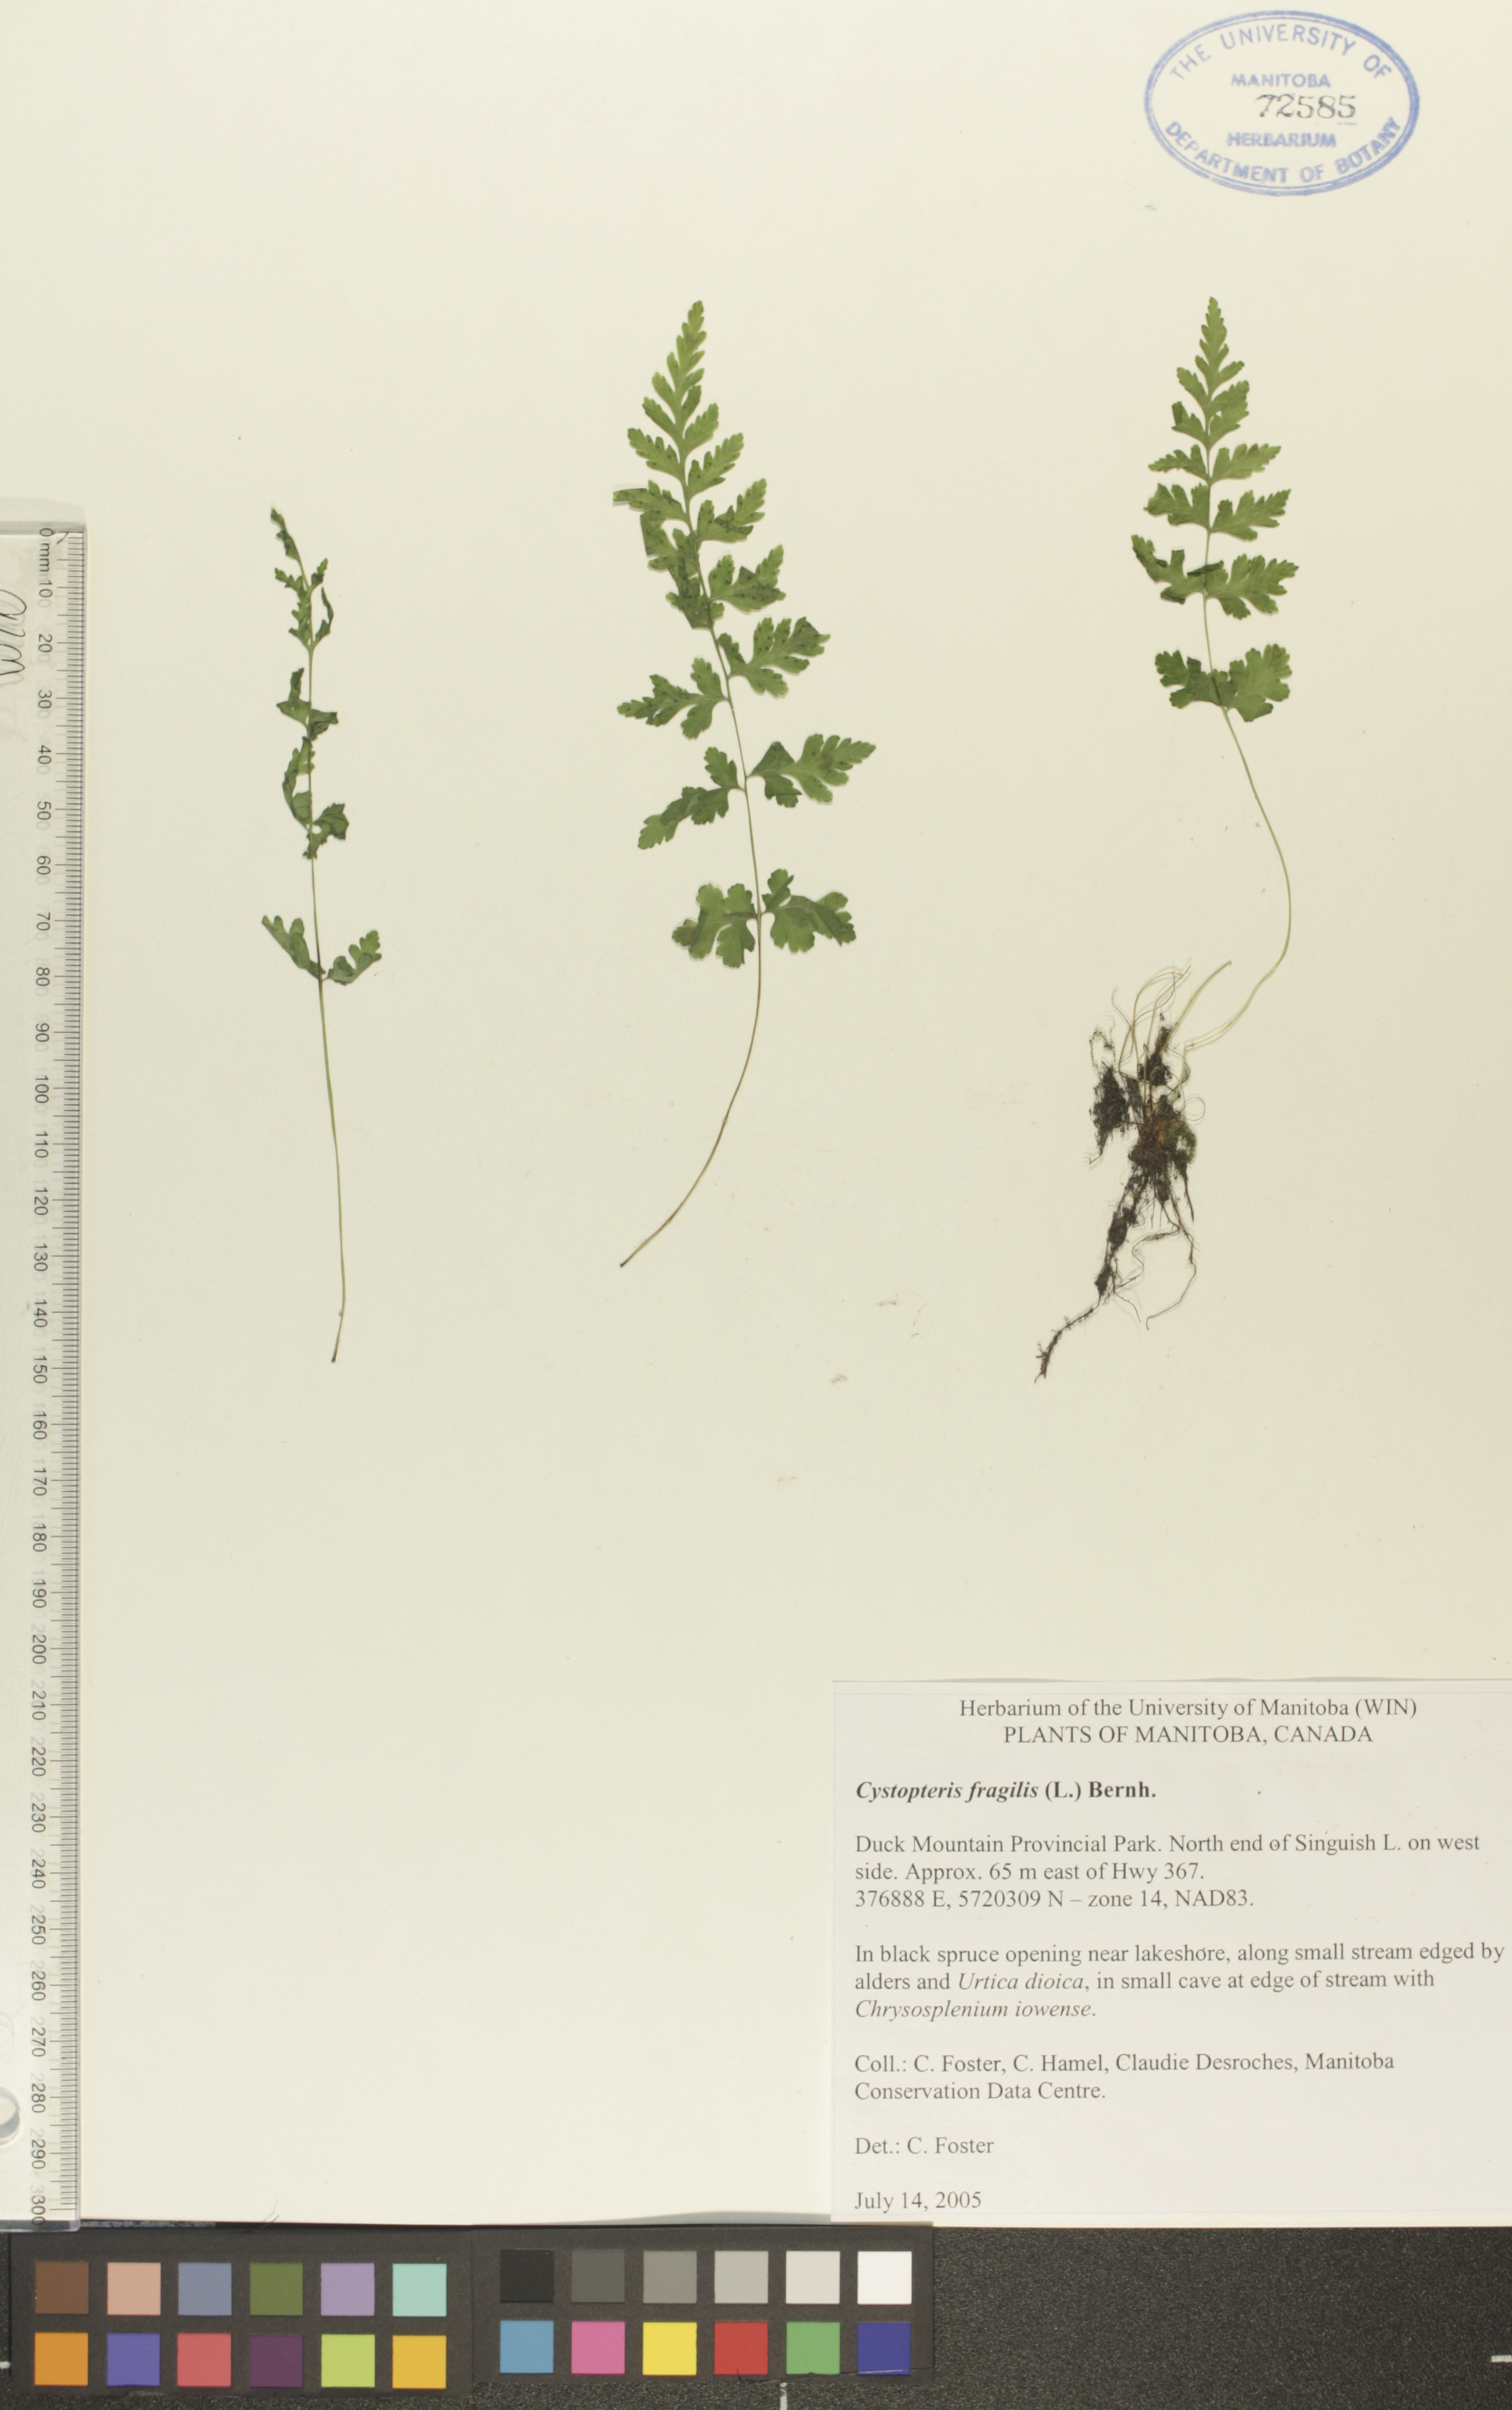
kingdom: Plantae
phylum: Tracheophyta
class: Polypodiopsida
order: Polypodiales
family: Cystopteridaceae
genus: Cystopteris
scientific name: Cystopteris fragilis
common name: Brittle bladder fern
